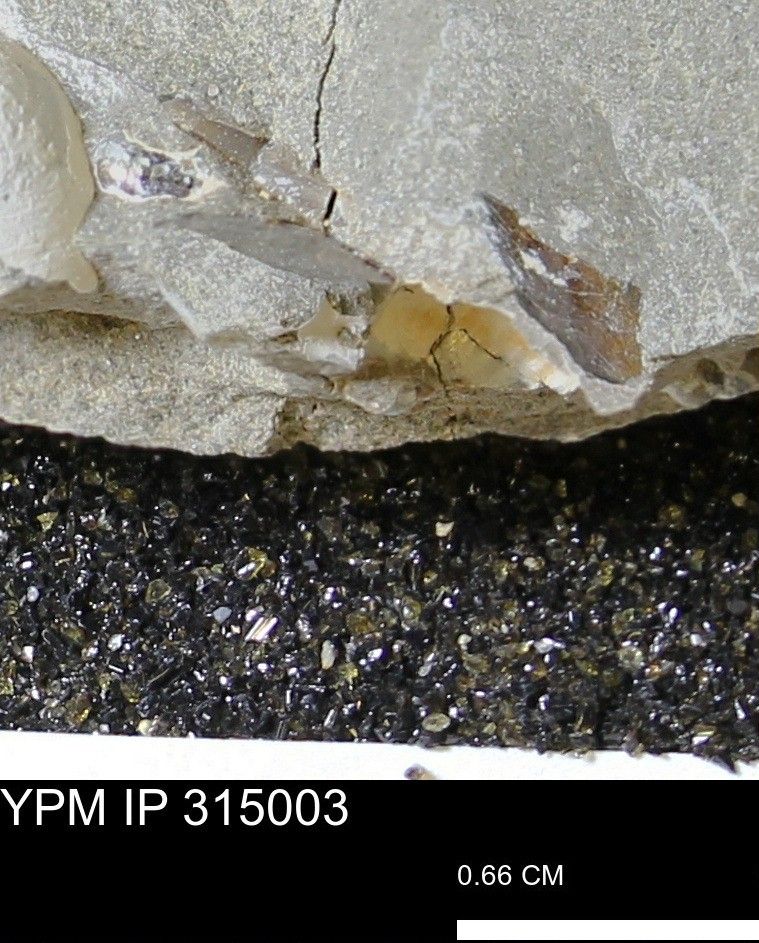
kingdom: Animalia
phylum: Mollusca
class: Cephalopoda
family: Scaphitidae
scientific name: Scaphitidae
